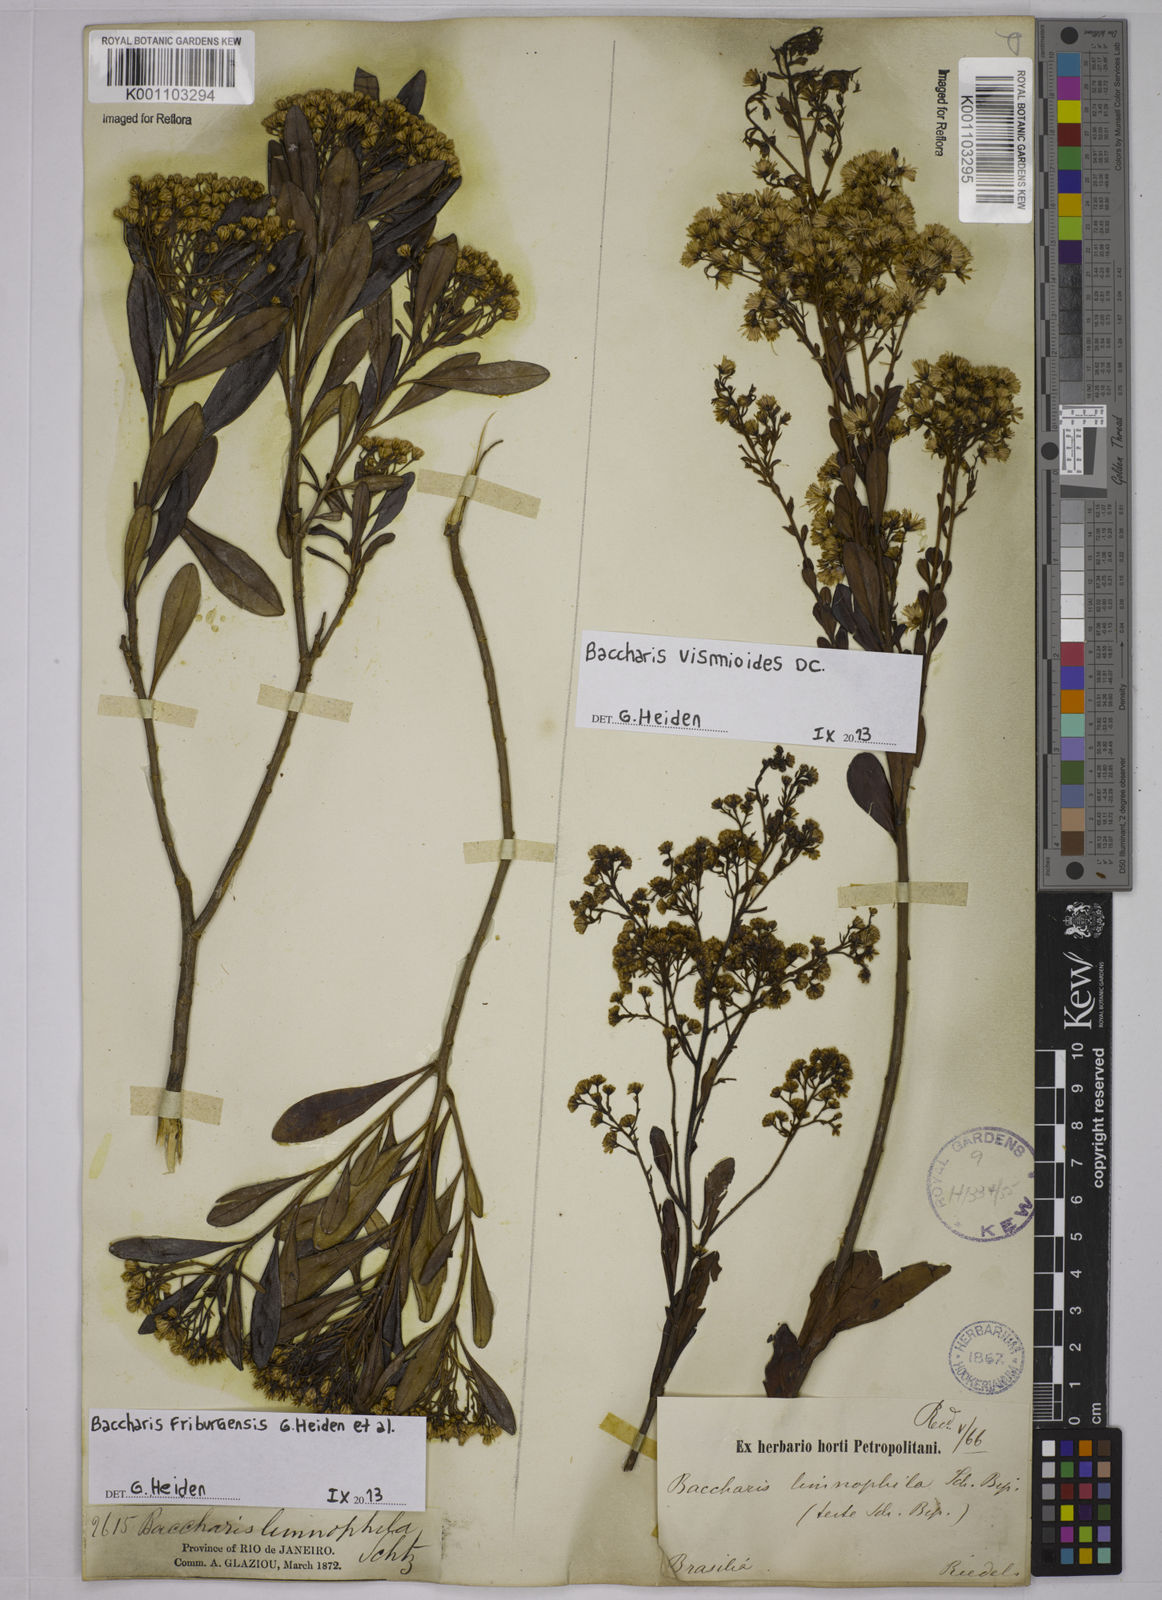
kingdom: Plantae
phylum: Tracheophyta
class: Magnoliopsida
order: Asterales
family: Asteraceae
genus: Baccharis
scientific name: Baccharis vismioides
